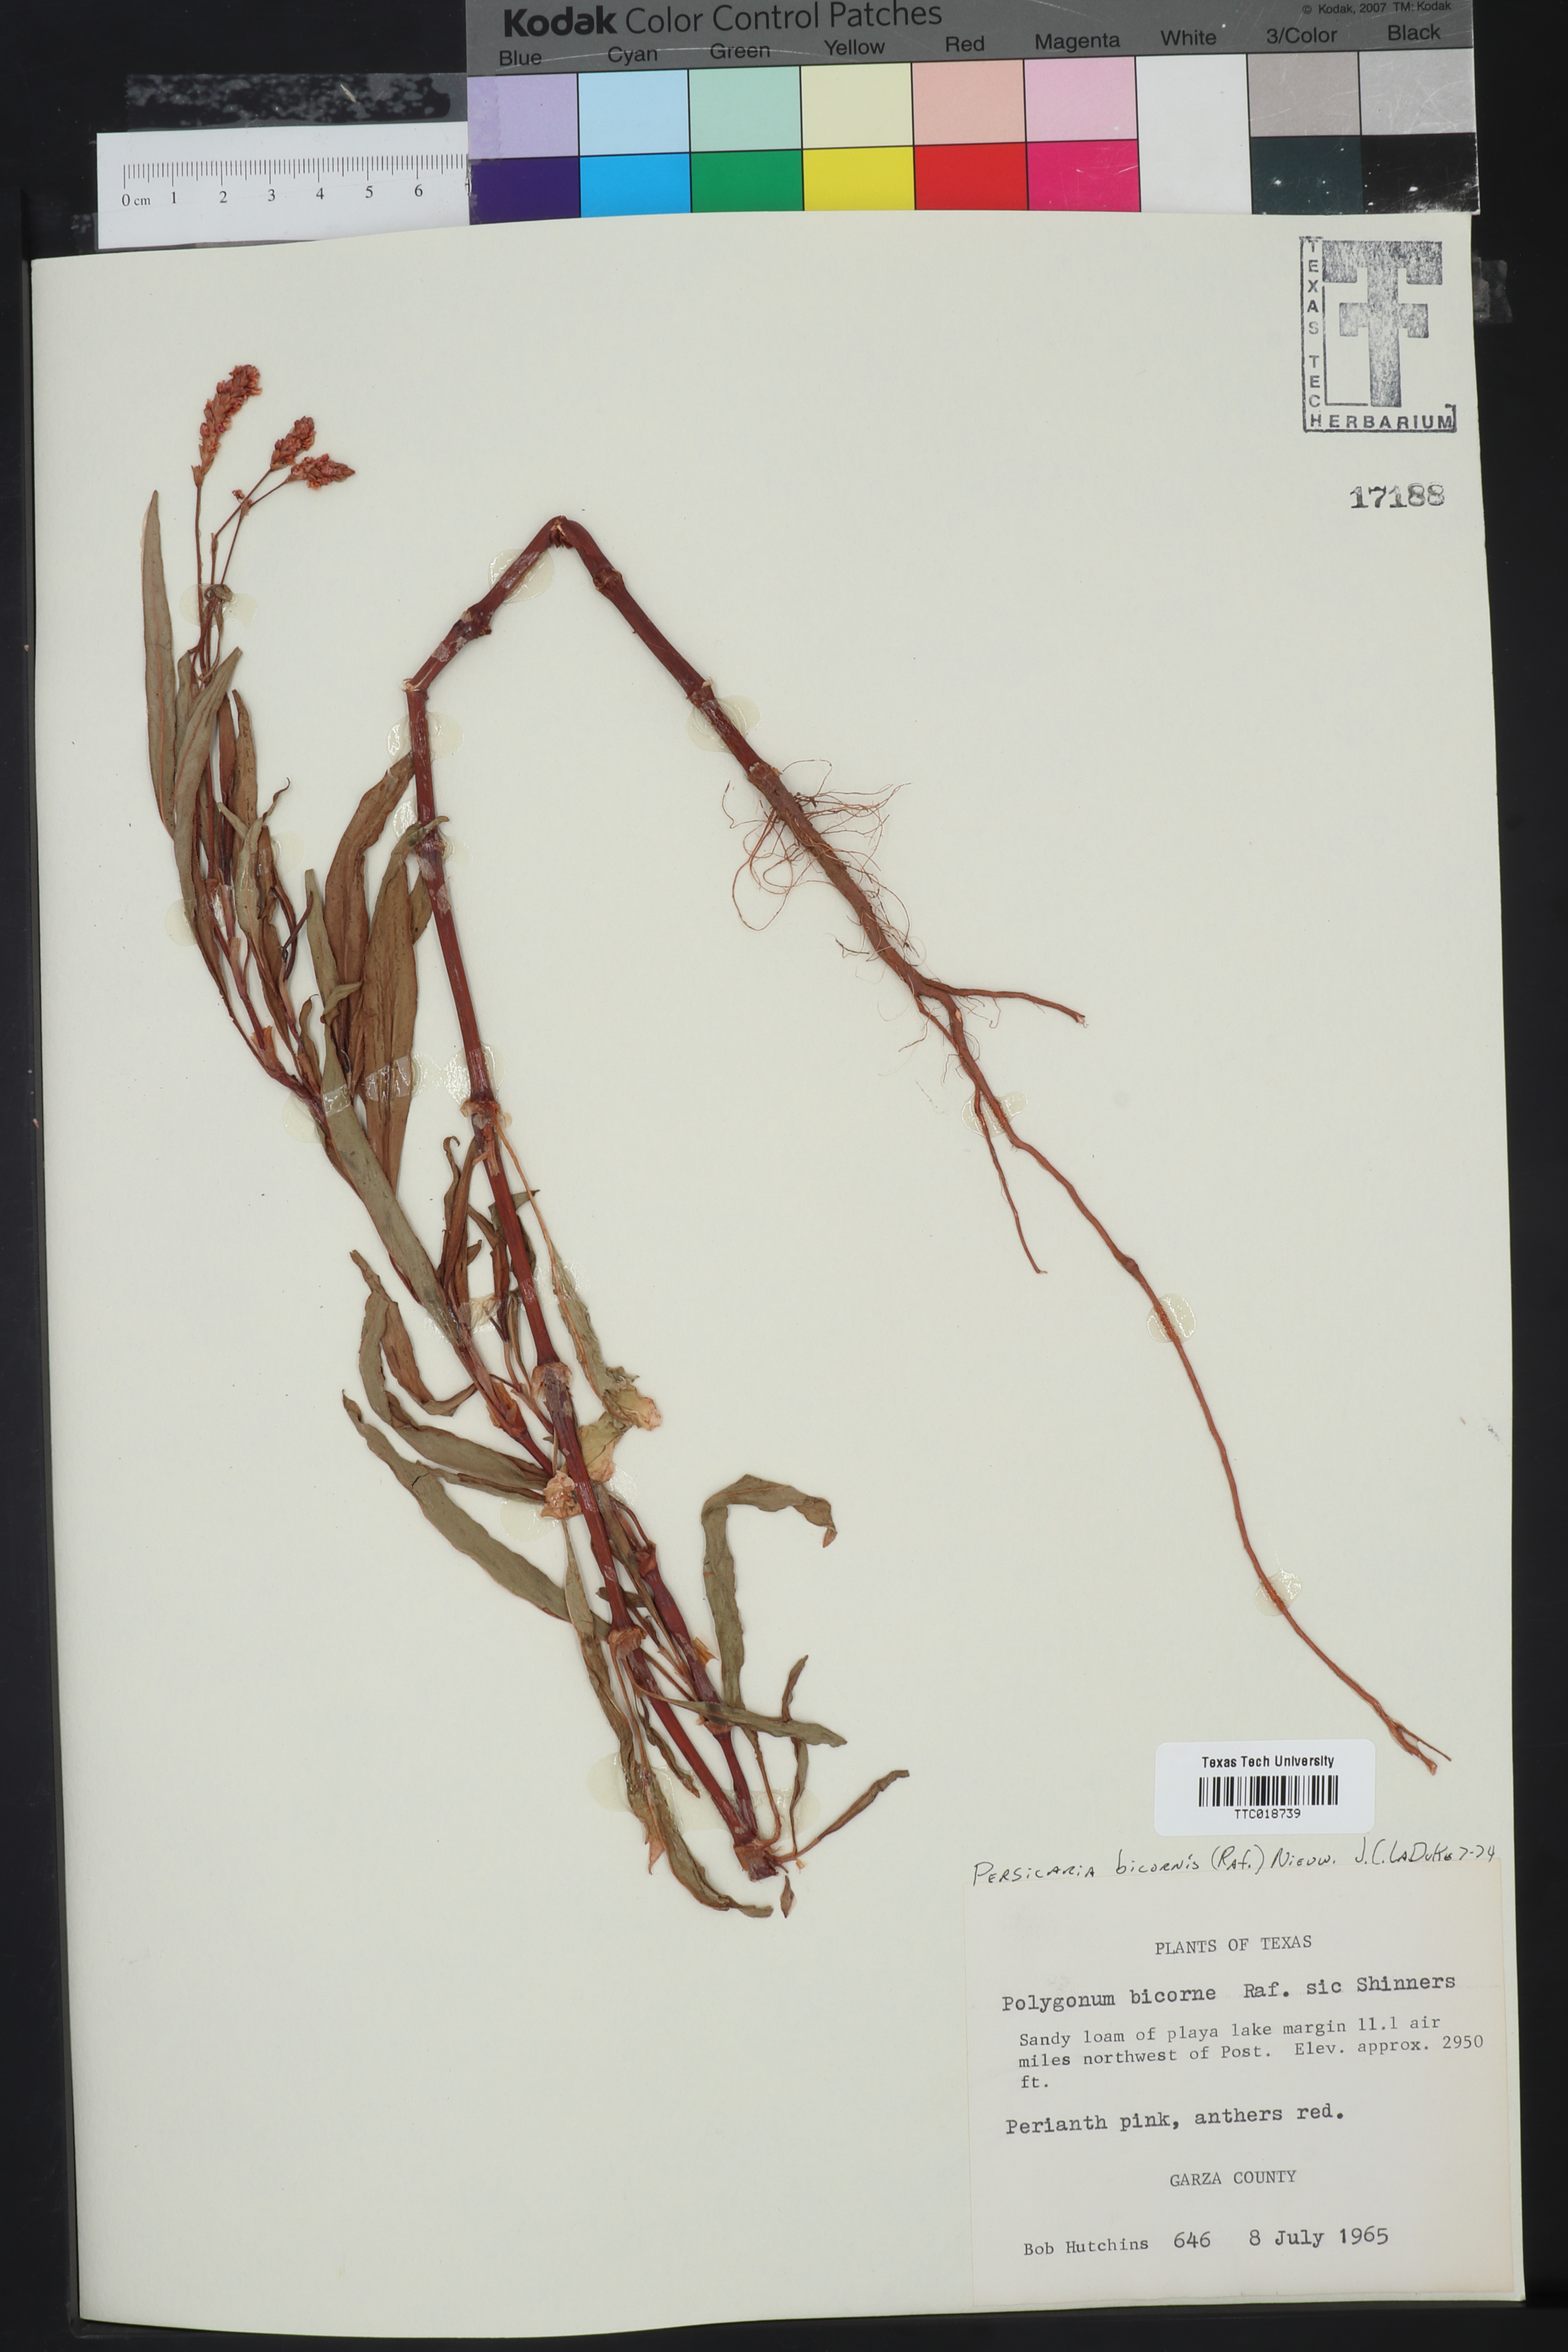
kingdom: Plantae
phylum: Tracheophyta
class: Magnoliopsida
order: Caryophyllales
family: Polygonaceae
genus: Persicaria
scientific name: Persicaria bicornis
